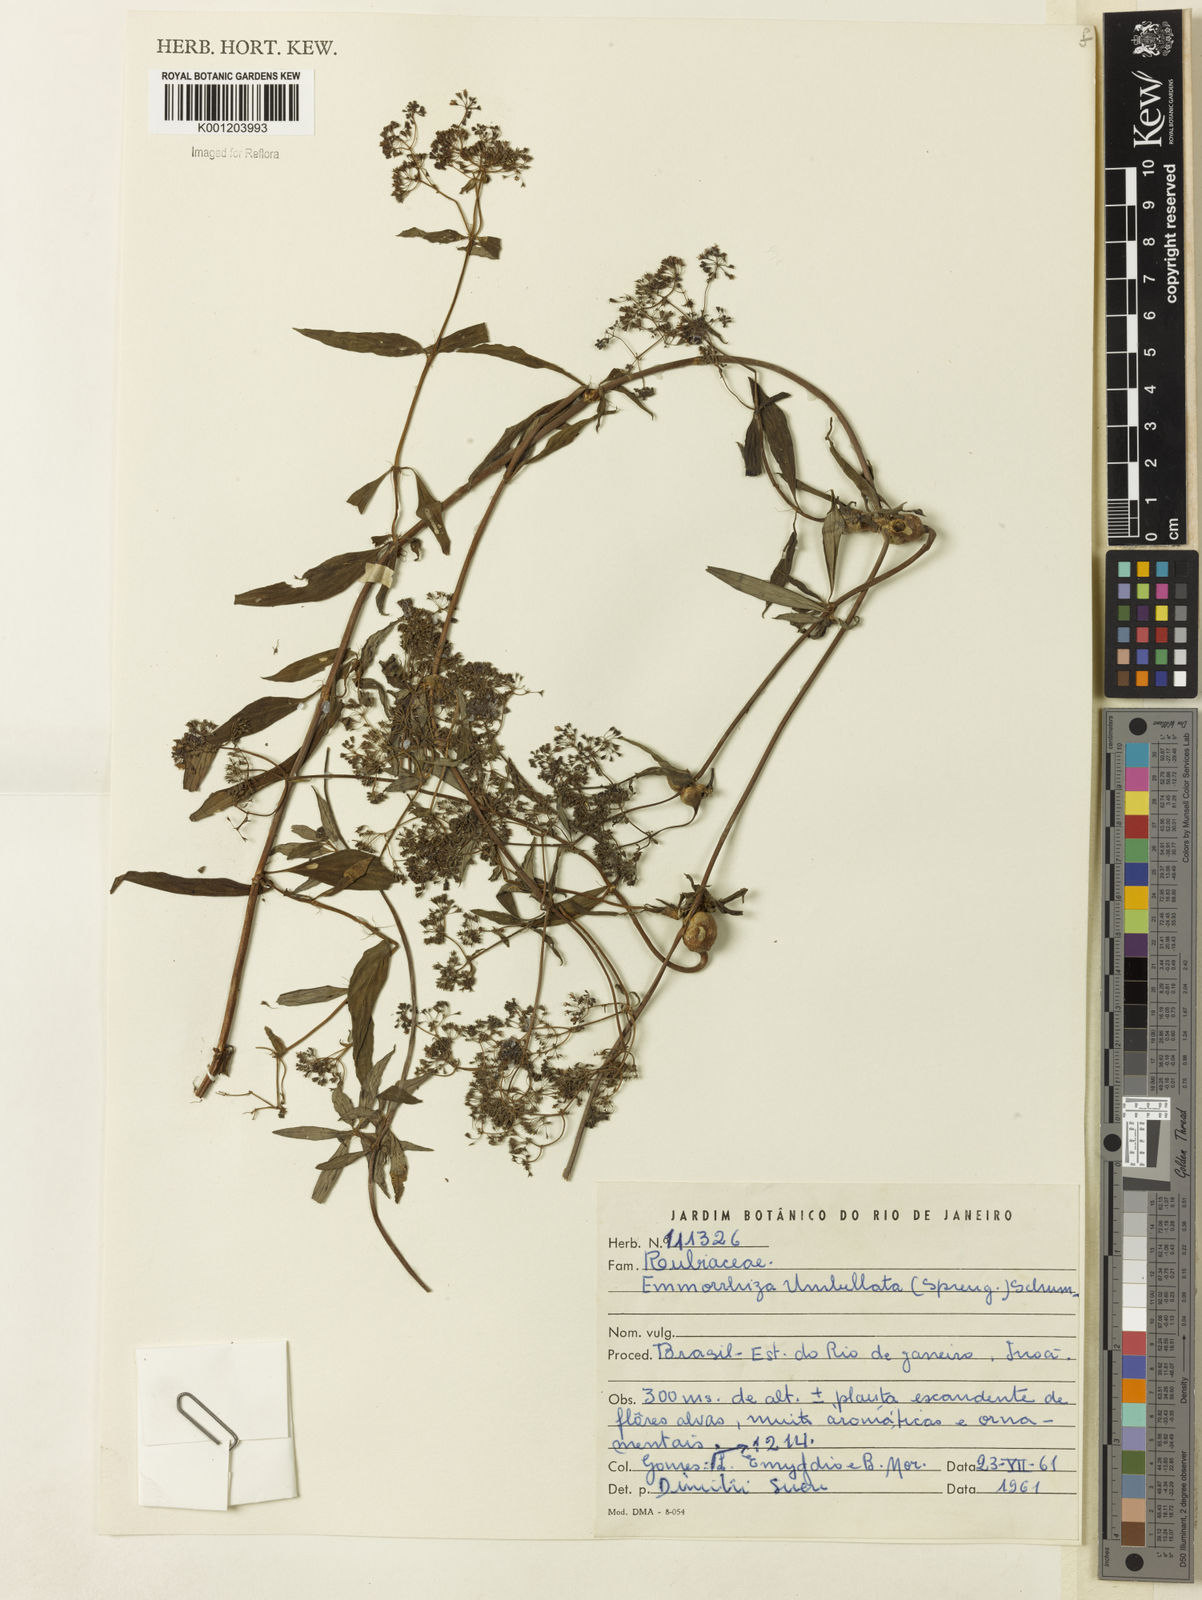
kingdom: Plantae
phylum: Tracheophyta
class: Magnoliopsida
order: Gentianales
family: Rubiaceae
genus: Emmeorhiza
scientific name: Emmeorhiza umbellata
